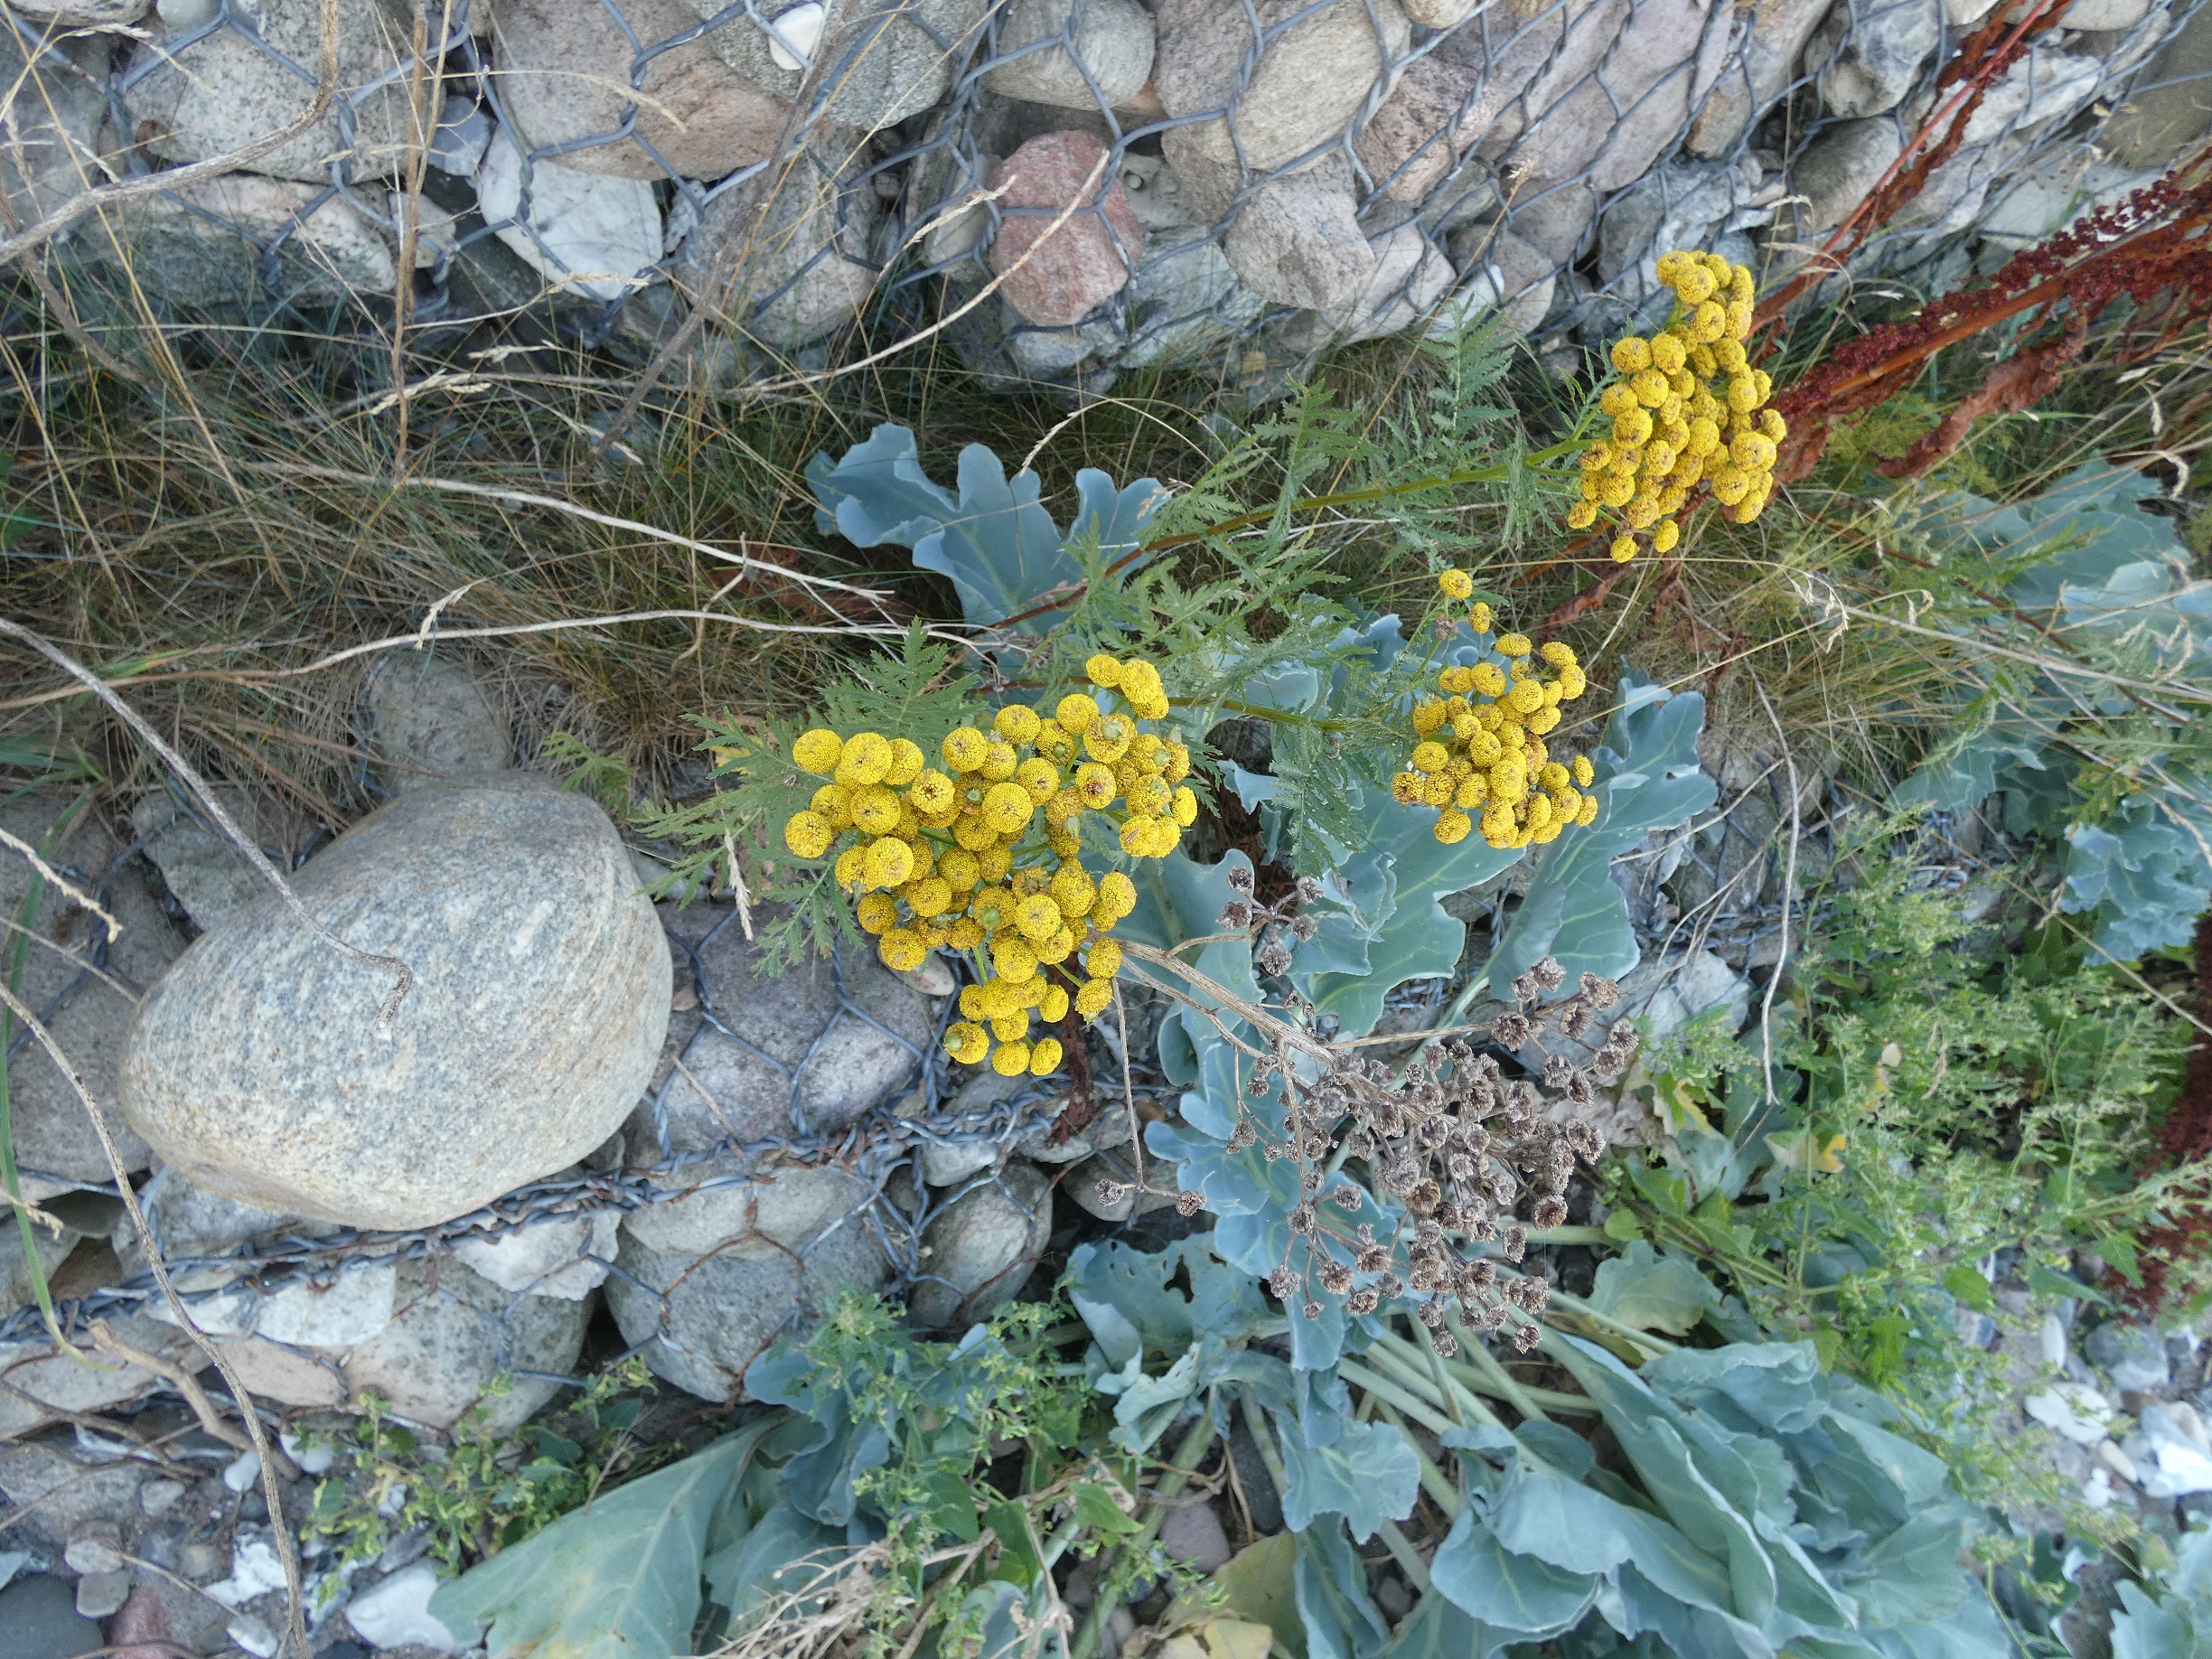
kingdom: Plantae
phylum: Tracheophyta
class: Magnoliopsida
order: Asterales
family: Asteraceae
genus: Tanacetum
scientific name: Tanacetum vulgare
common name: Rejnfan
